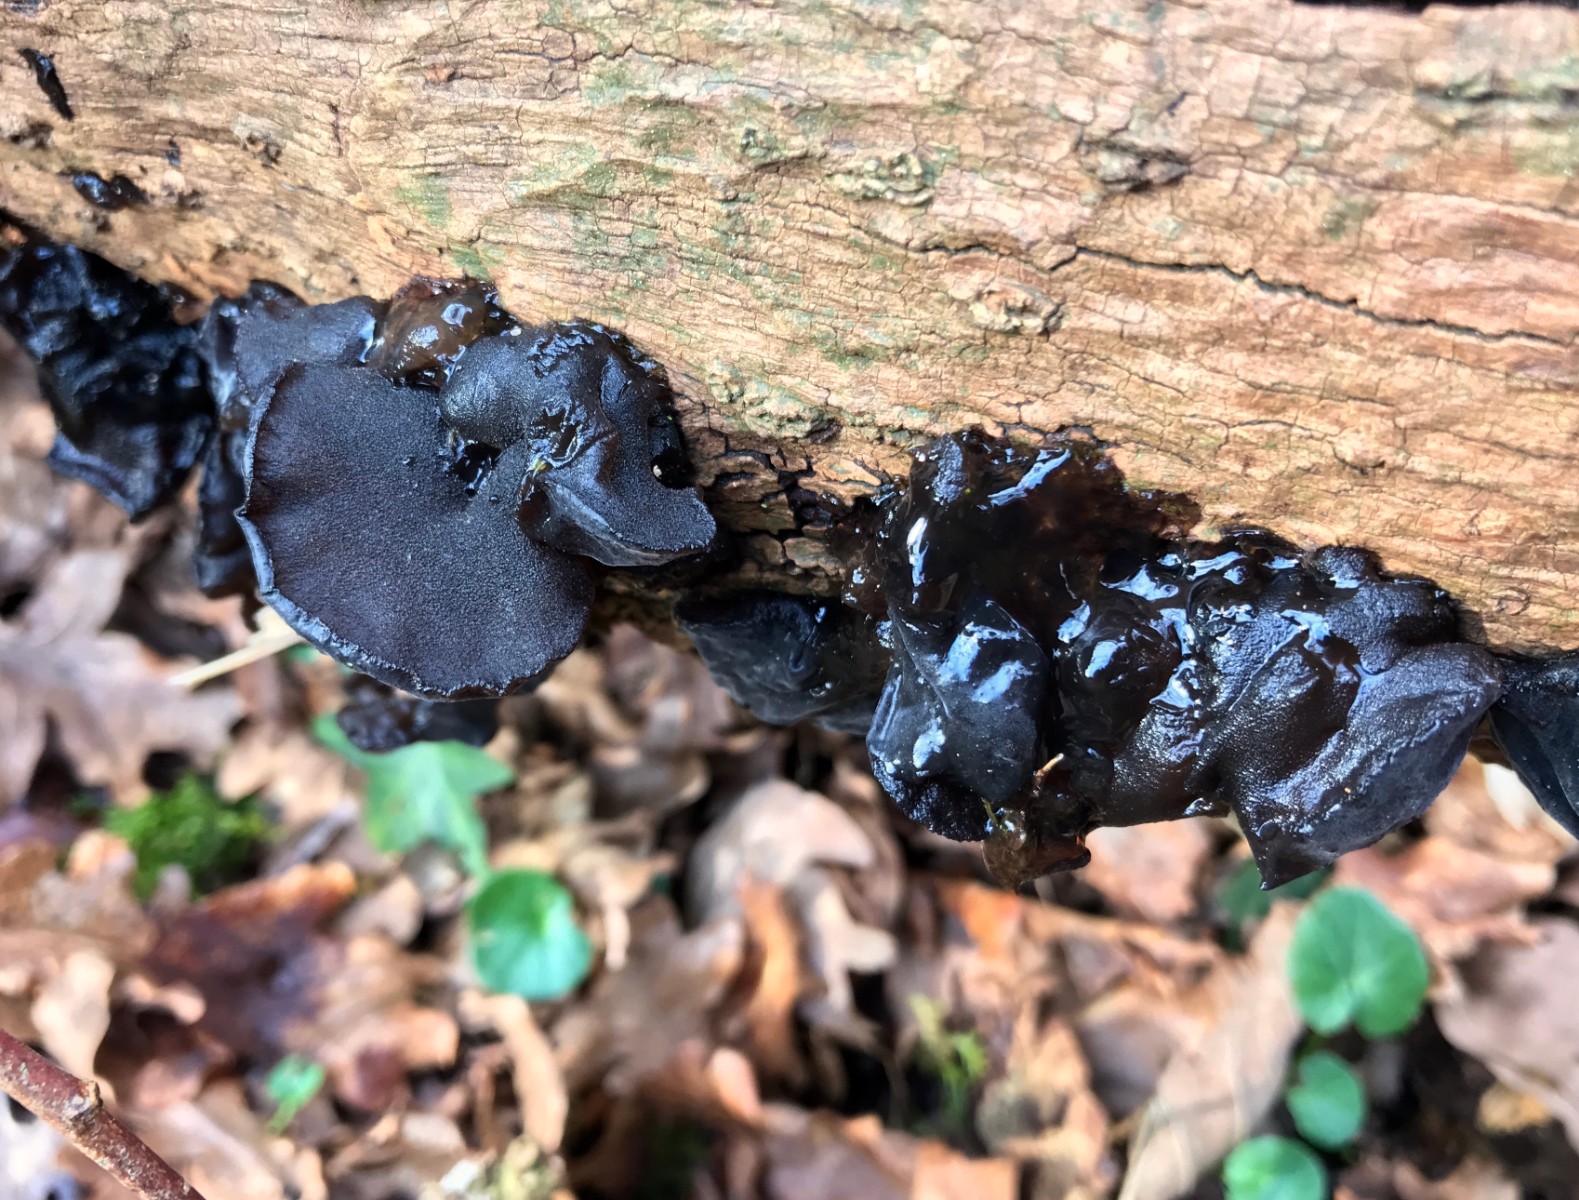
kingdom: Fungi
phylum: Basidiomycota
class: Agaricomycetes
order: Auriculariales
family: Auriculariaceae
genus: Exidia
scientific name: Exidia glandulosa
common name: ege-bævretop
